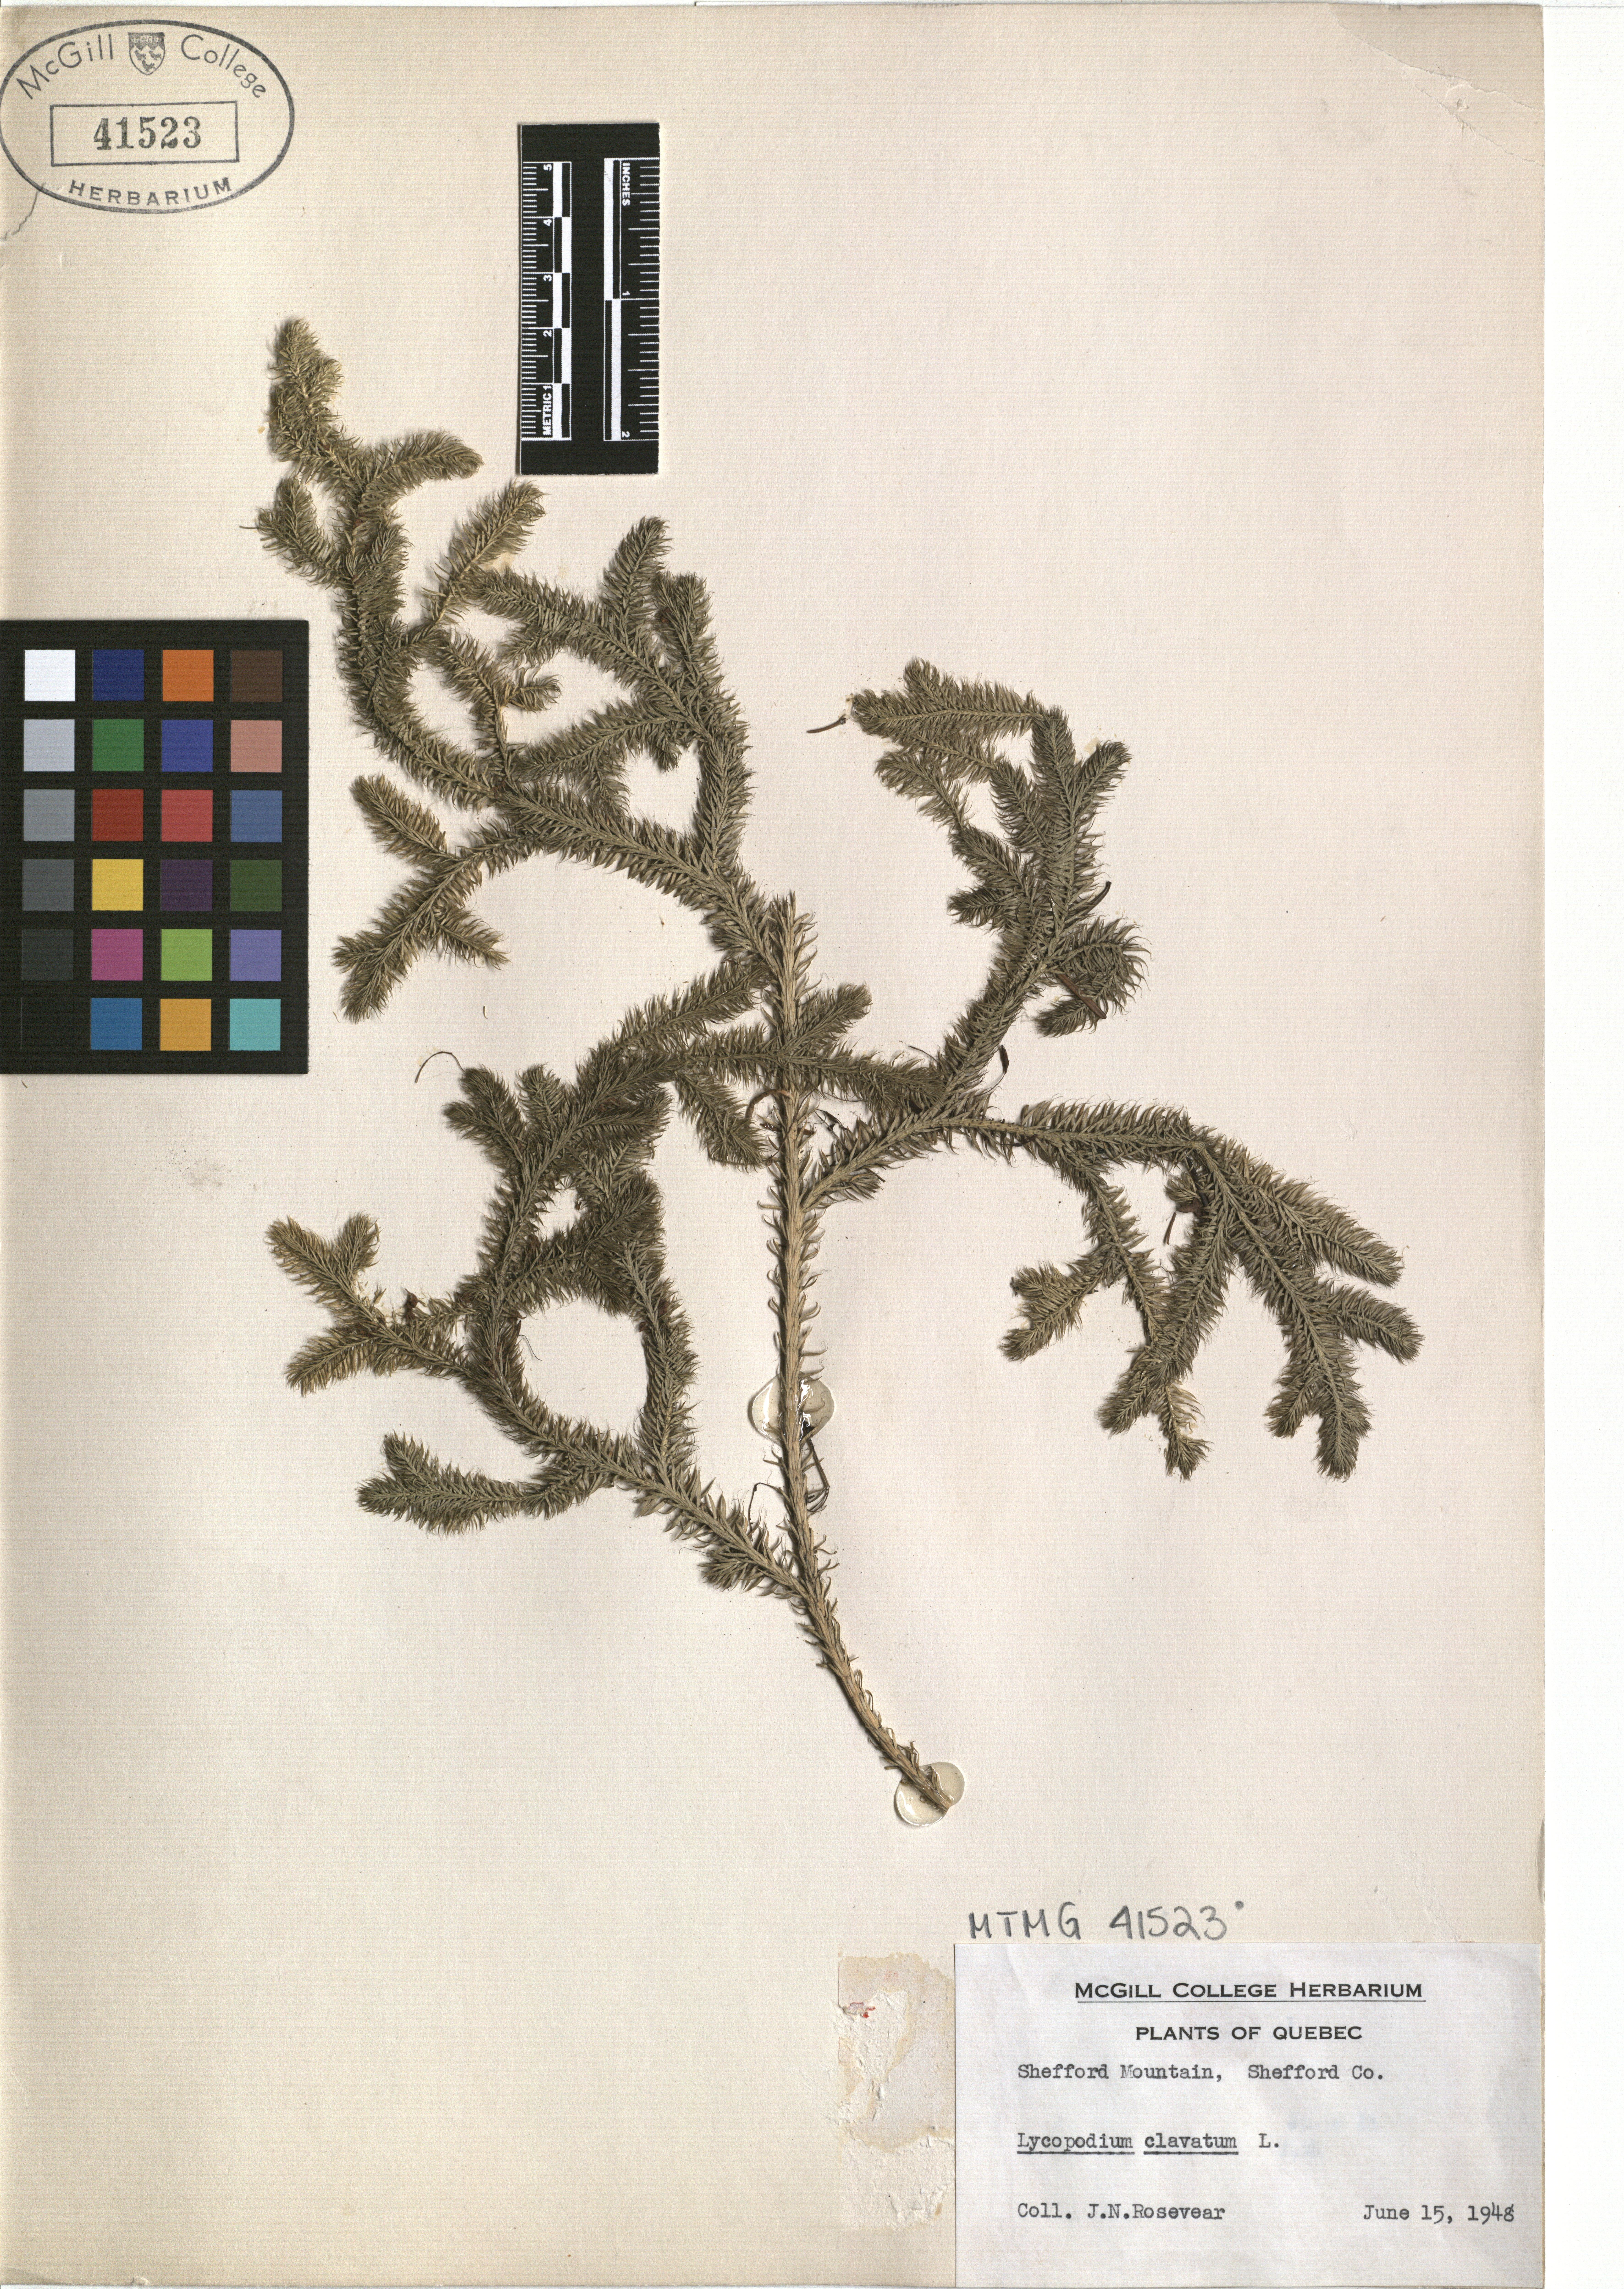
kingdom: Plantae
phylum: Tracheophyta
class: Lycopodiopsida
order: Lycopodiales
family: Lycopodiaceae
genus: Lycopodium
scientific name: Lycopodium clavatum
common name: Stag's-horn clubmoss
